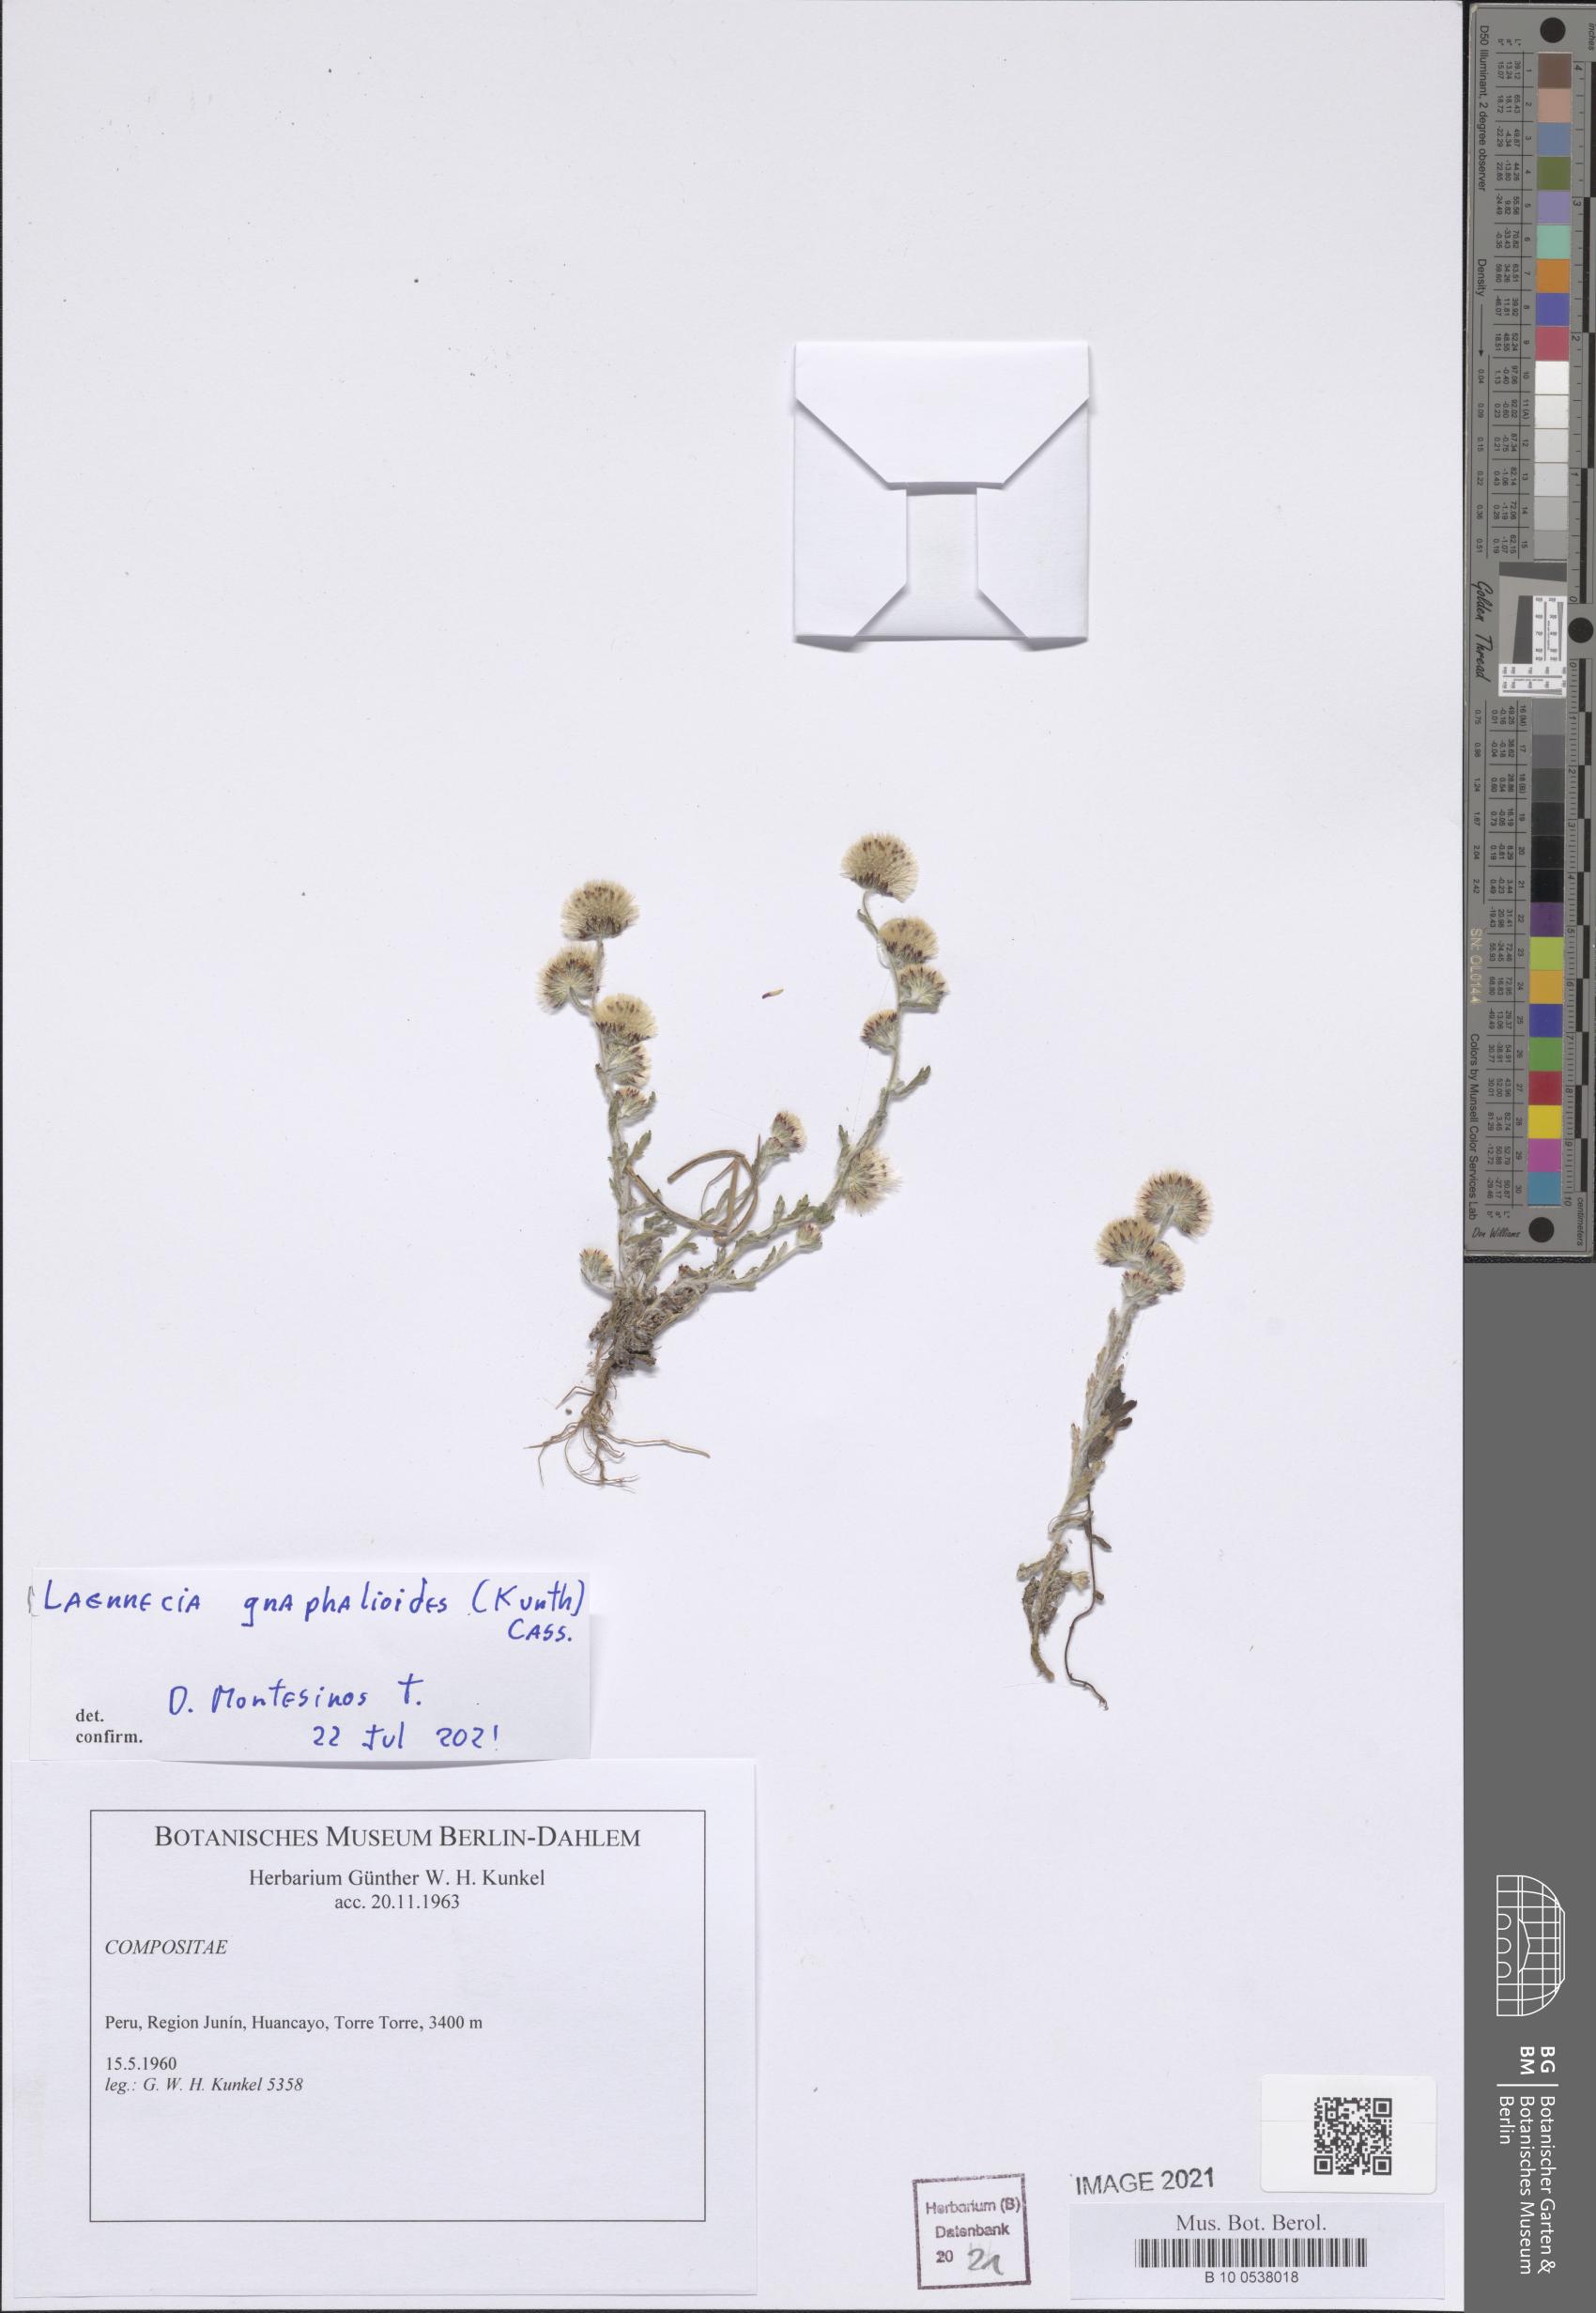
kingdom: Plantae
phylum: Tracheophyta
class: Magnoliopsida
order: Asterales
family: Asteraceae
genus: Laennecia
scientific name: Laennecia gnaphalioides
